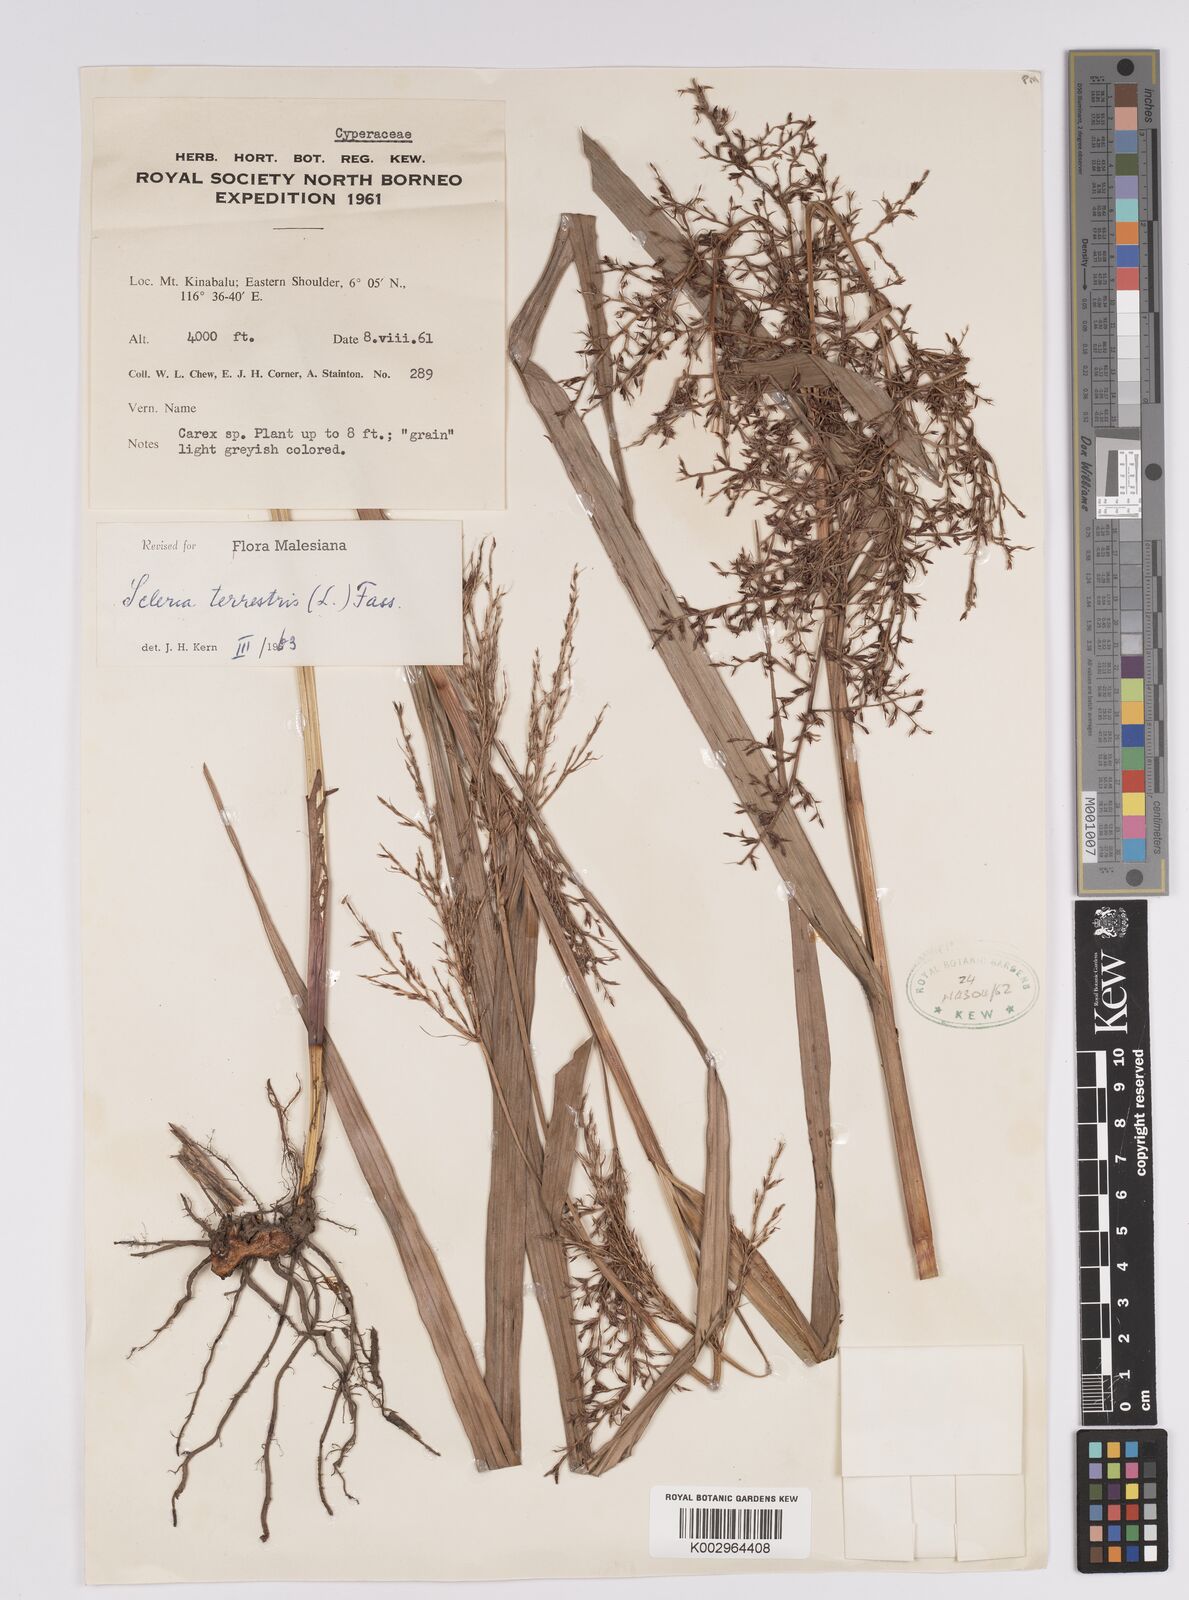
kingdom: Plantae
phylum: Tracheophyta
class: Liliopsida
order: Poales
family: Cyperaceae
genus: Scleria
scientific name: Scleria terrestris
